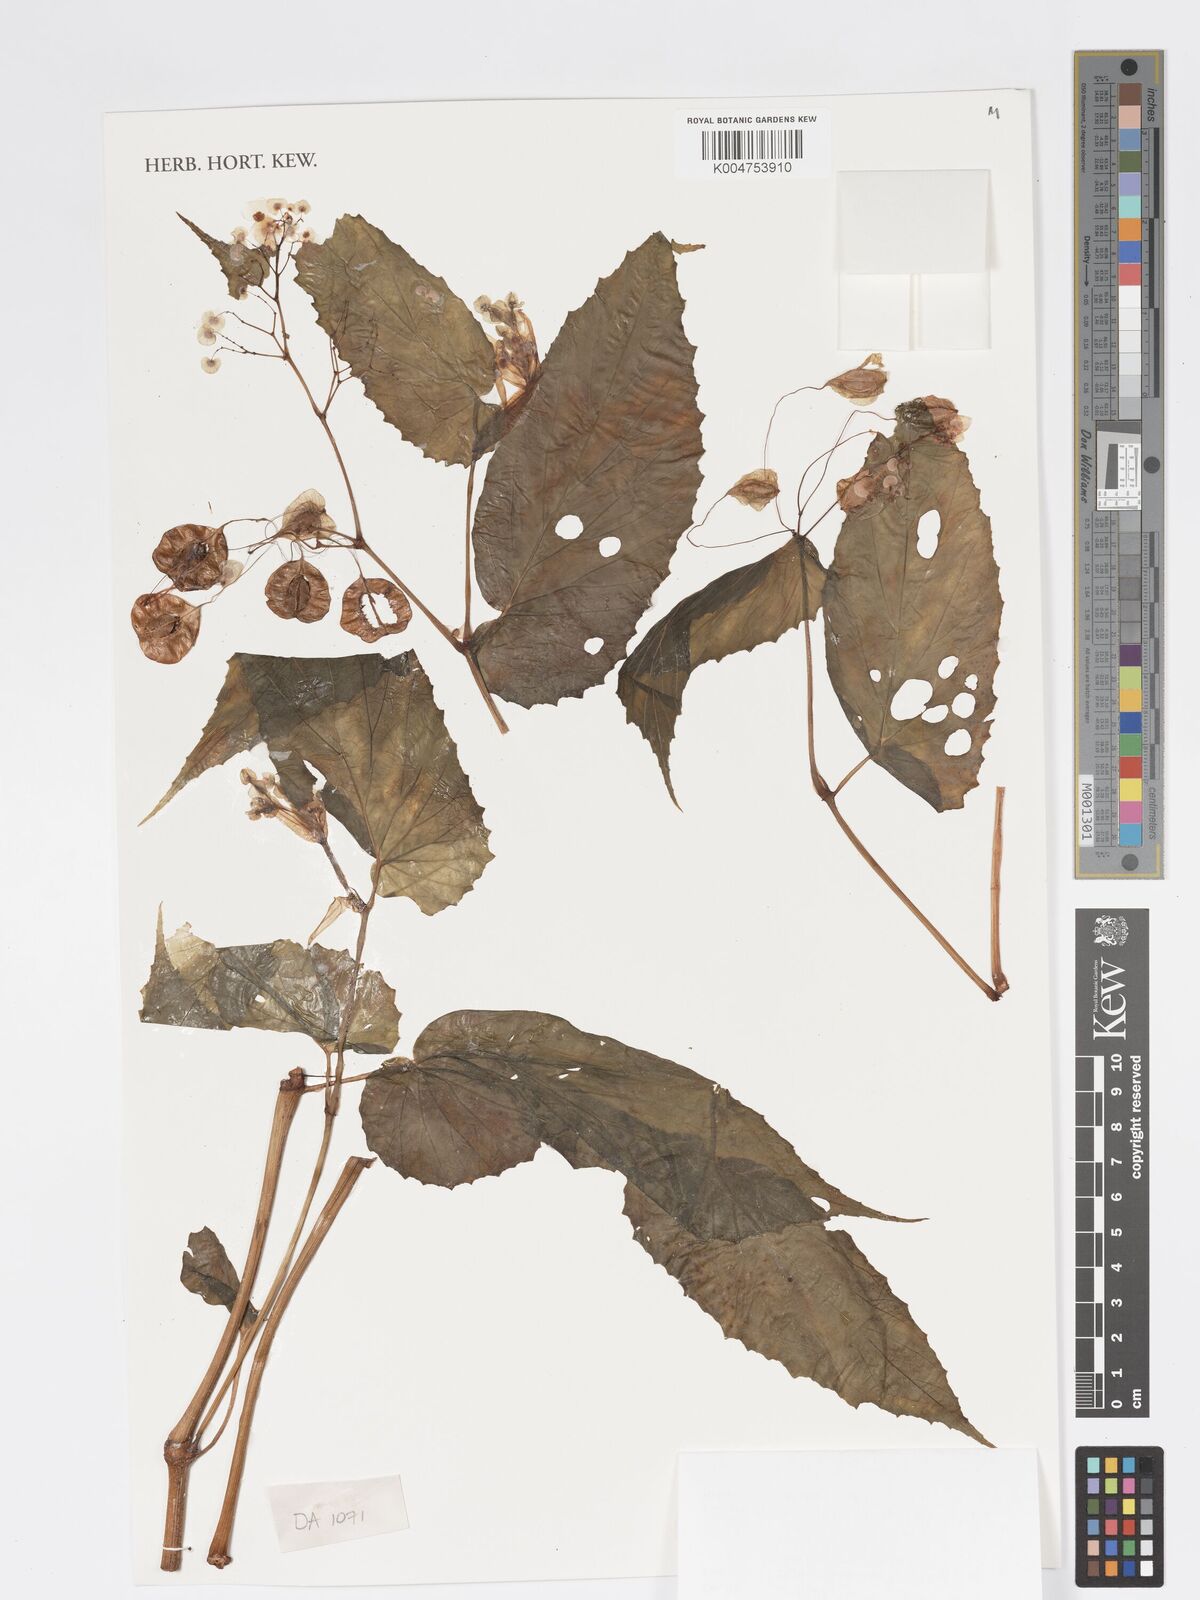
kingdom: Plantae
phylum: Tracheophyta
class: Magnoliopsida
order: Cucurbitales
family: Begoniaceae
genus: Begonia
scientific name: Begonia fruticella
